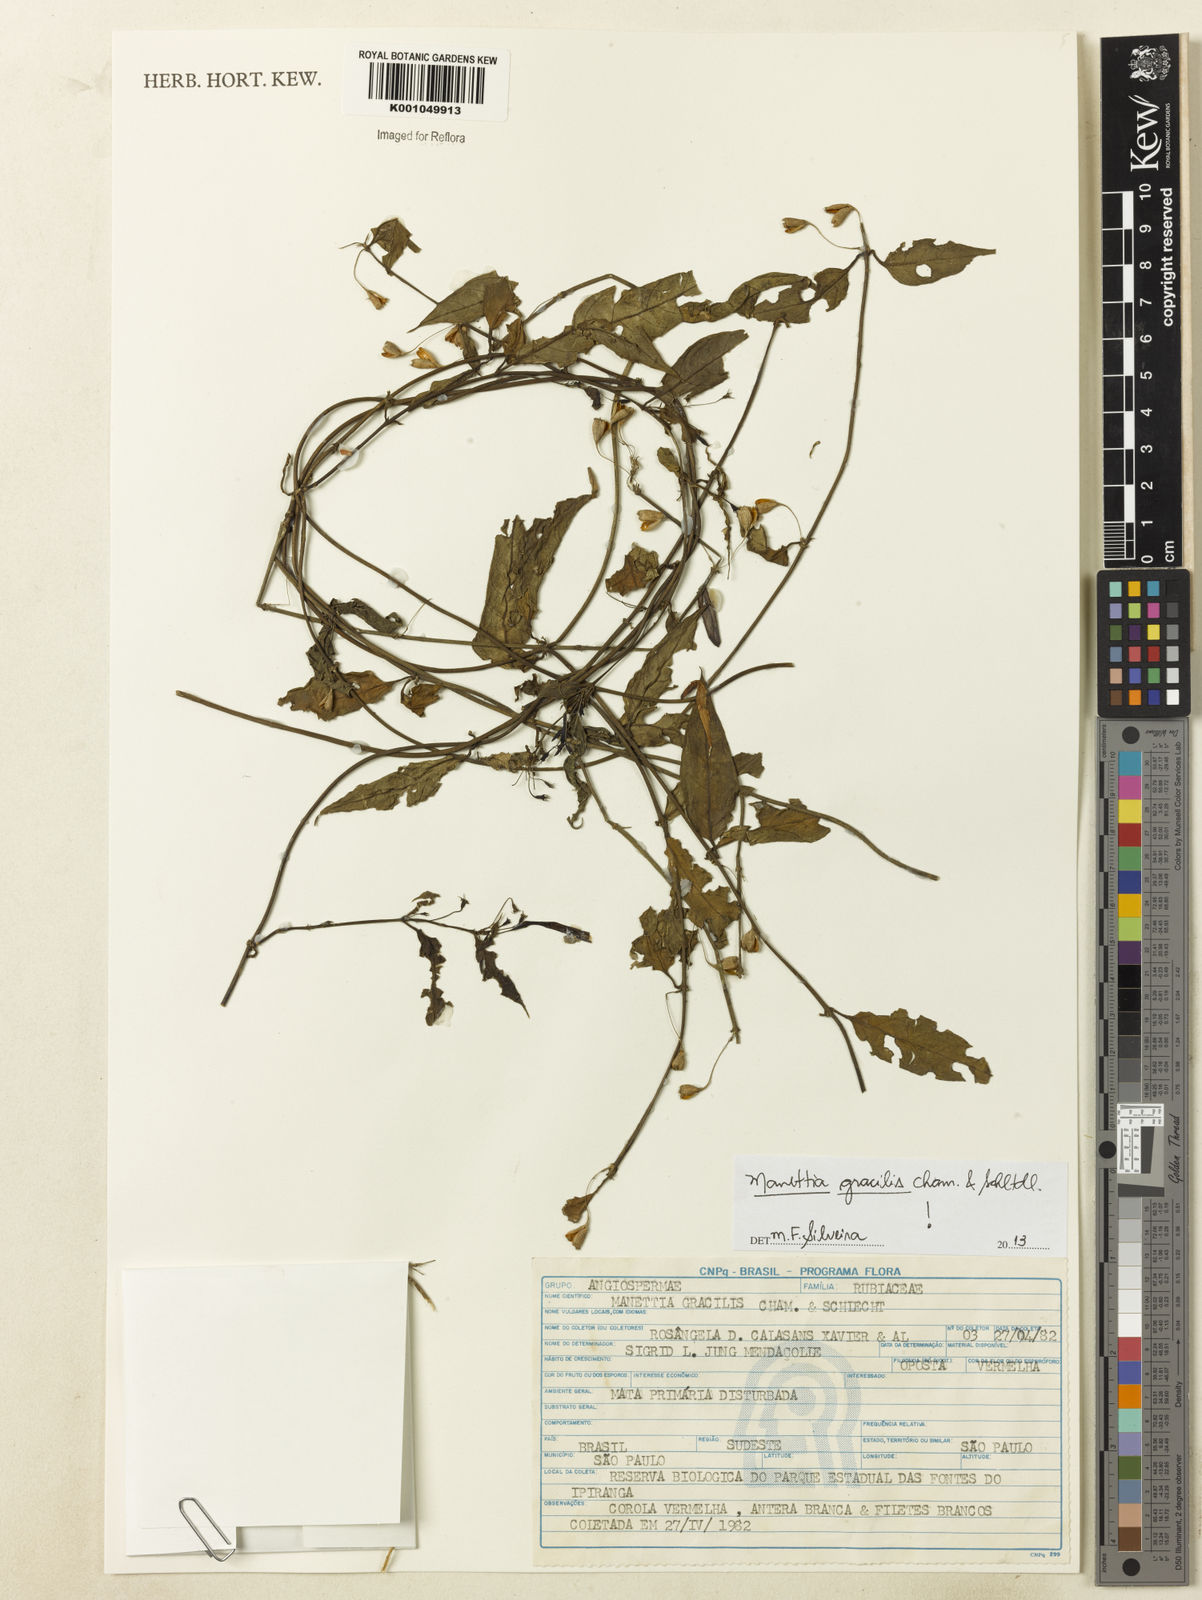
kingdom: Plantae
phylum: Tracheophyta
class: Magnoliopsida
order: Gentianales
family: Rubiaceae
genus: Manettia
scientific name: Manettia gracilis
